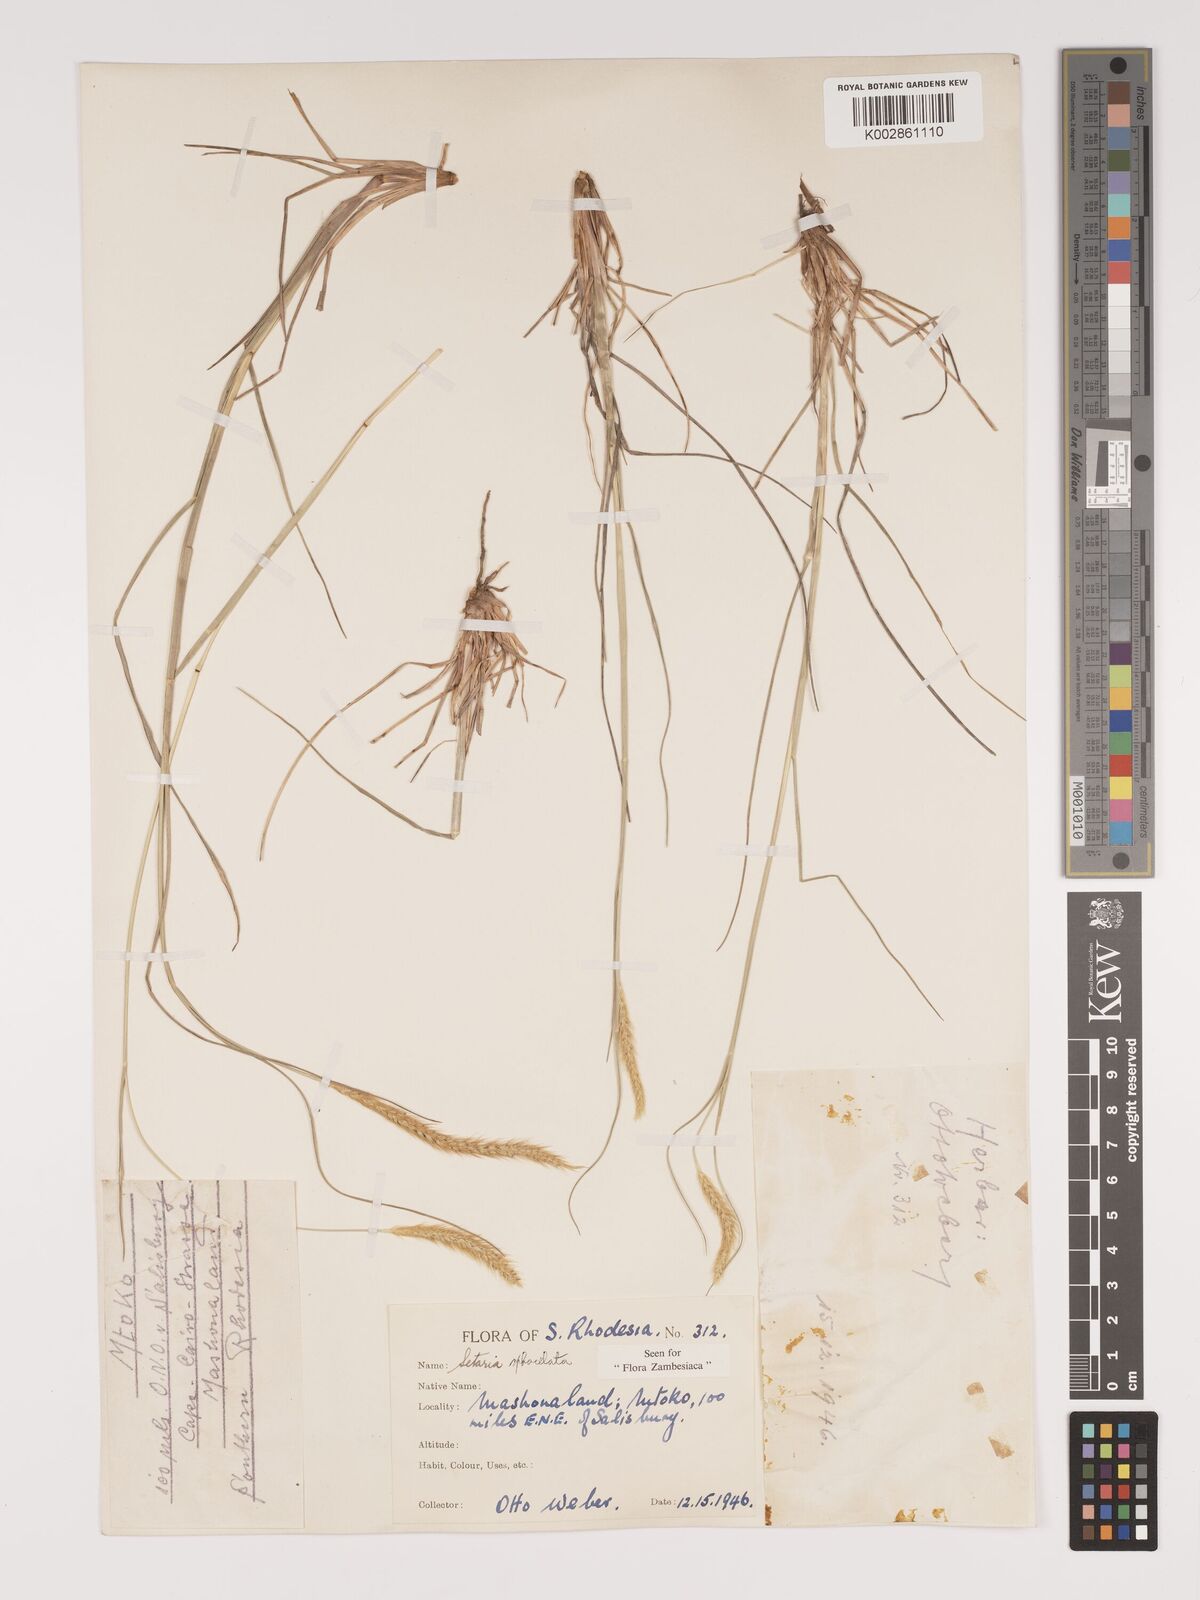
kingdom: Plantae
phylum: Tracheophyta
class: Liliopsida
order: Poales
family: Poaceae
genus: Setaria
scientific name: Setaria sphacelata
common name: African bristlegrass
